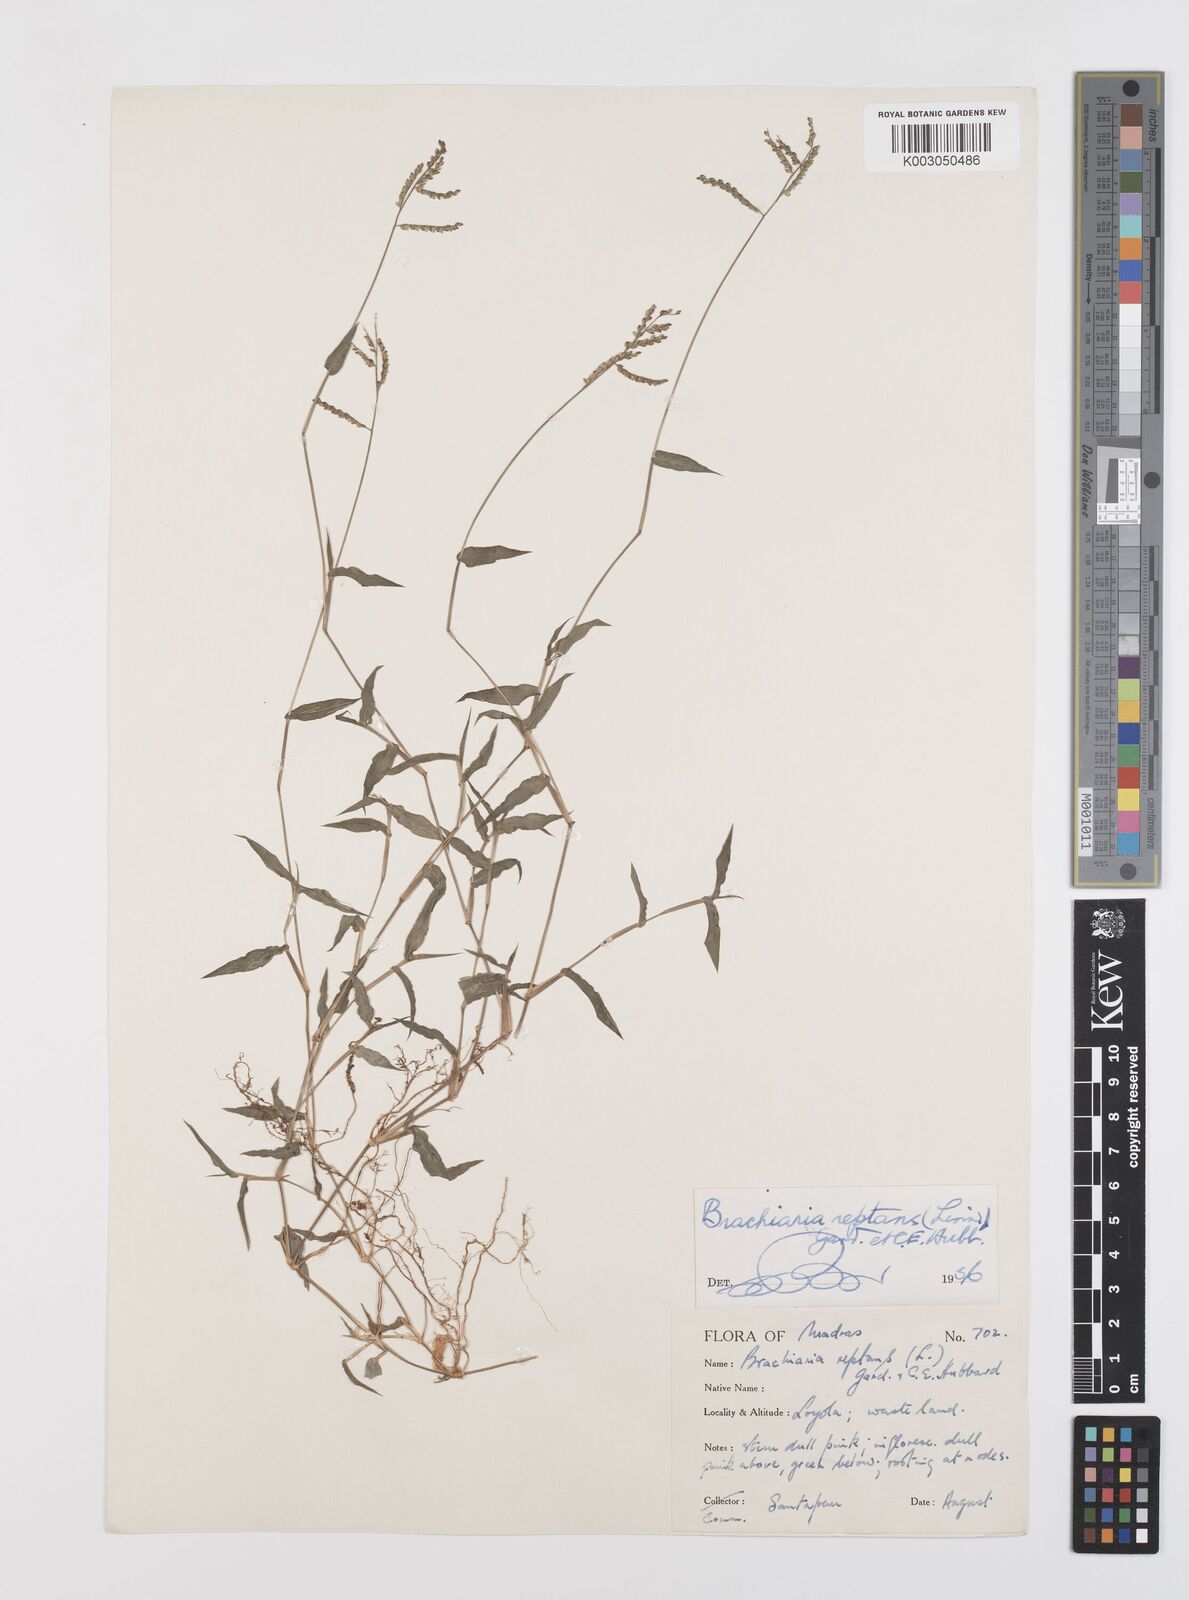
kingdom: Plantae
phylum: Tracheophyta
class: Liliopsida
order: Poales
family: Poaceae
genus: Urochloa
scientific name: Urochloa reptans
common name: Sprawling signalgrass
